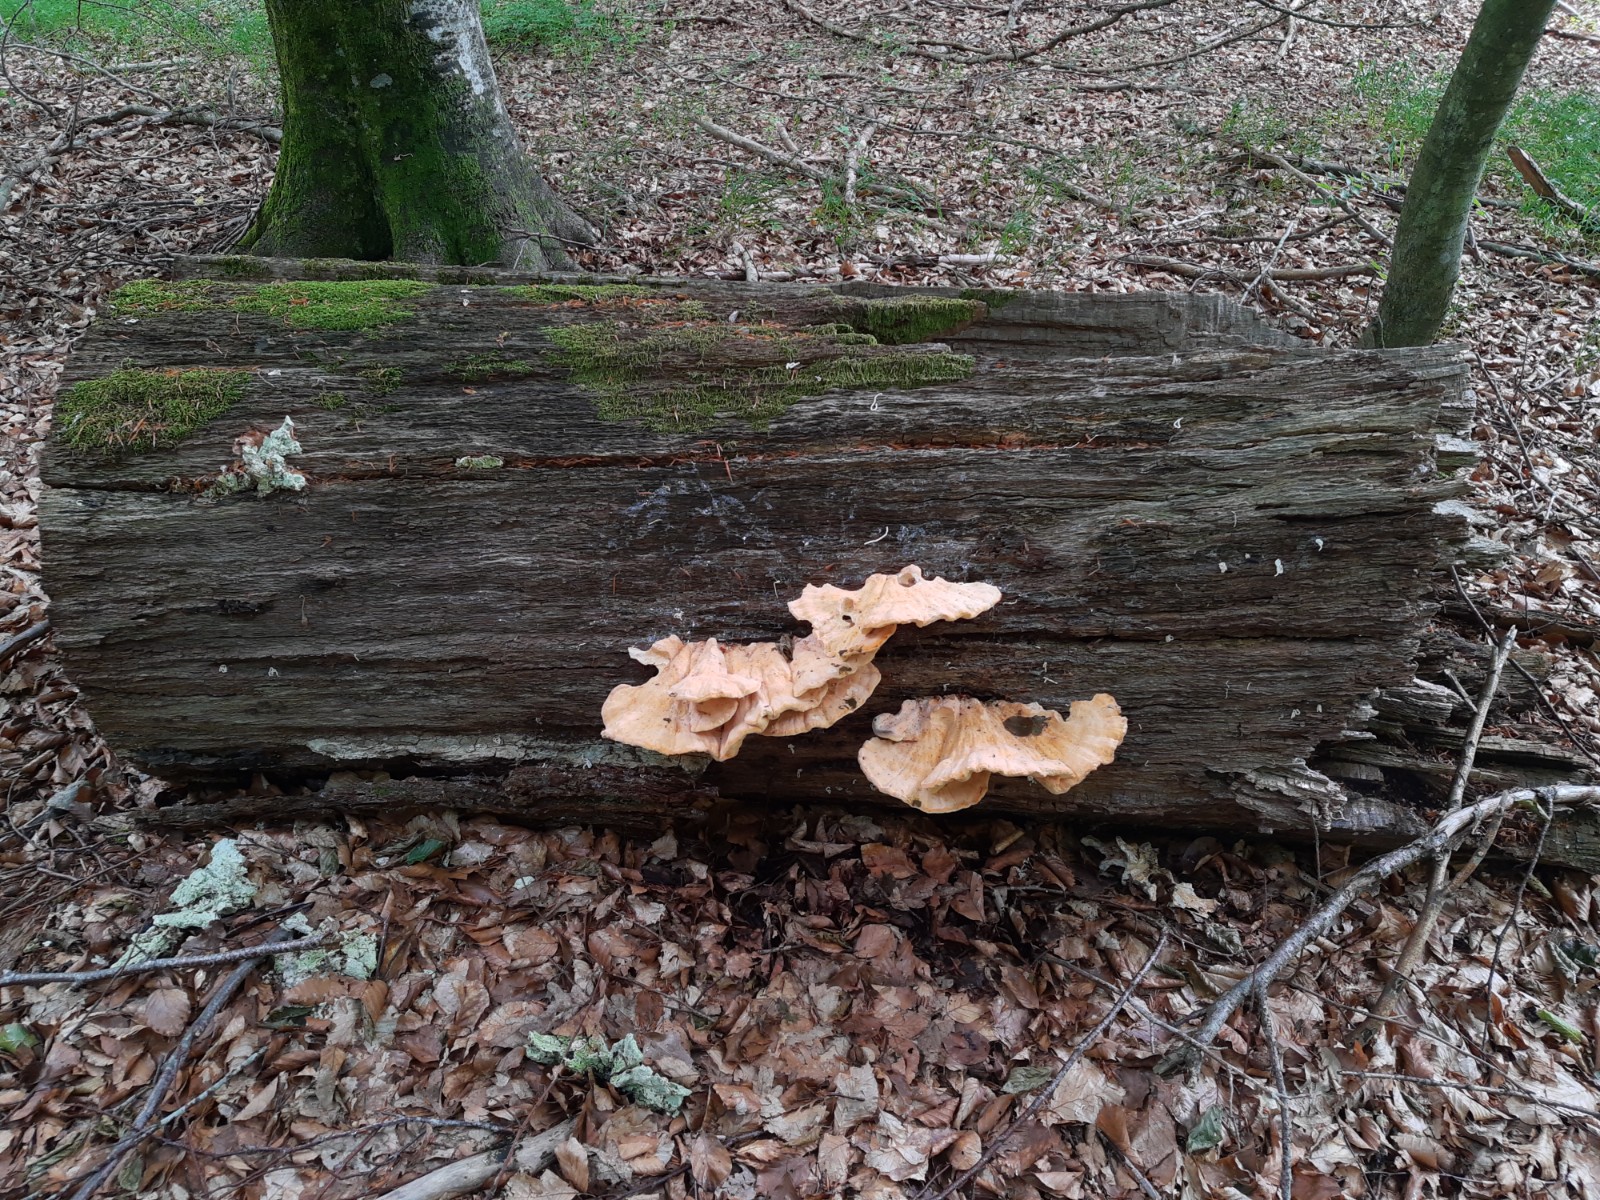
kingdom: Fungi
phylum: Basidiomycota
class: Agaricomycetes
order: Polyporales
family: Laetiporaceae
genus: Laetiporus
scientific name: Laetiporus sulphureus
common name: svovlporesvamp
